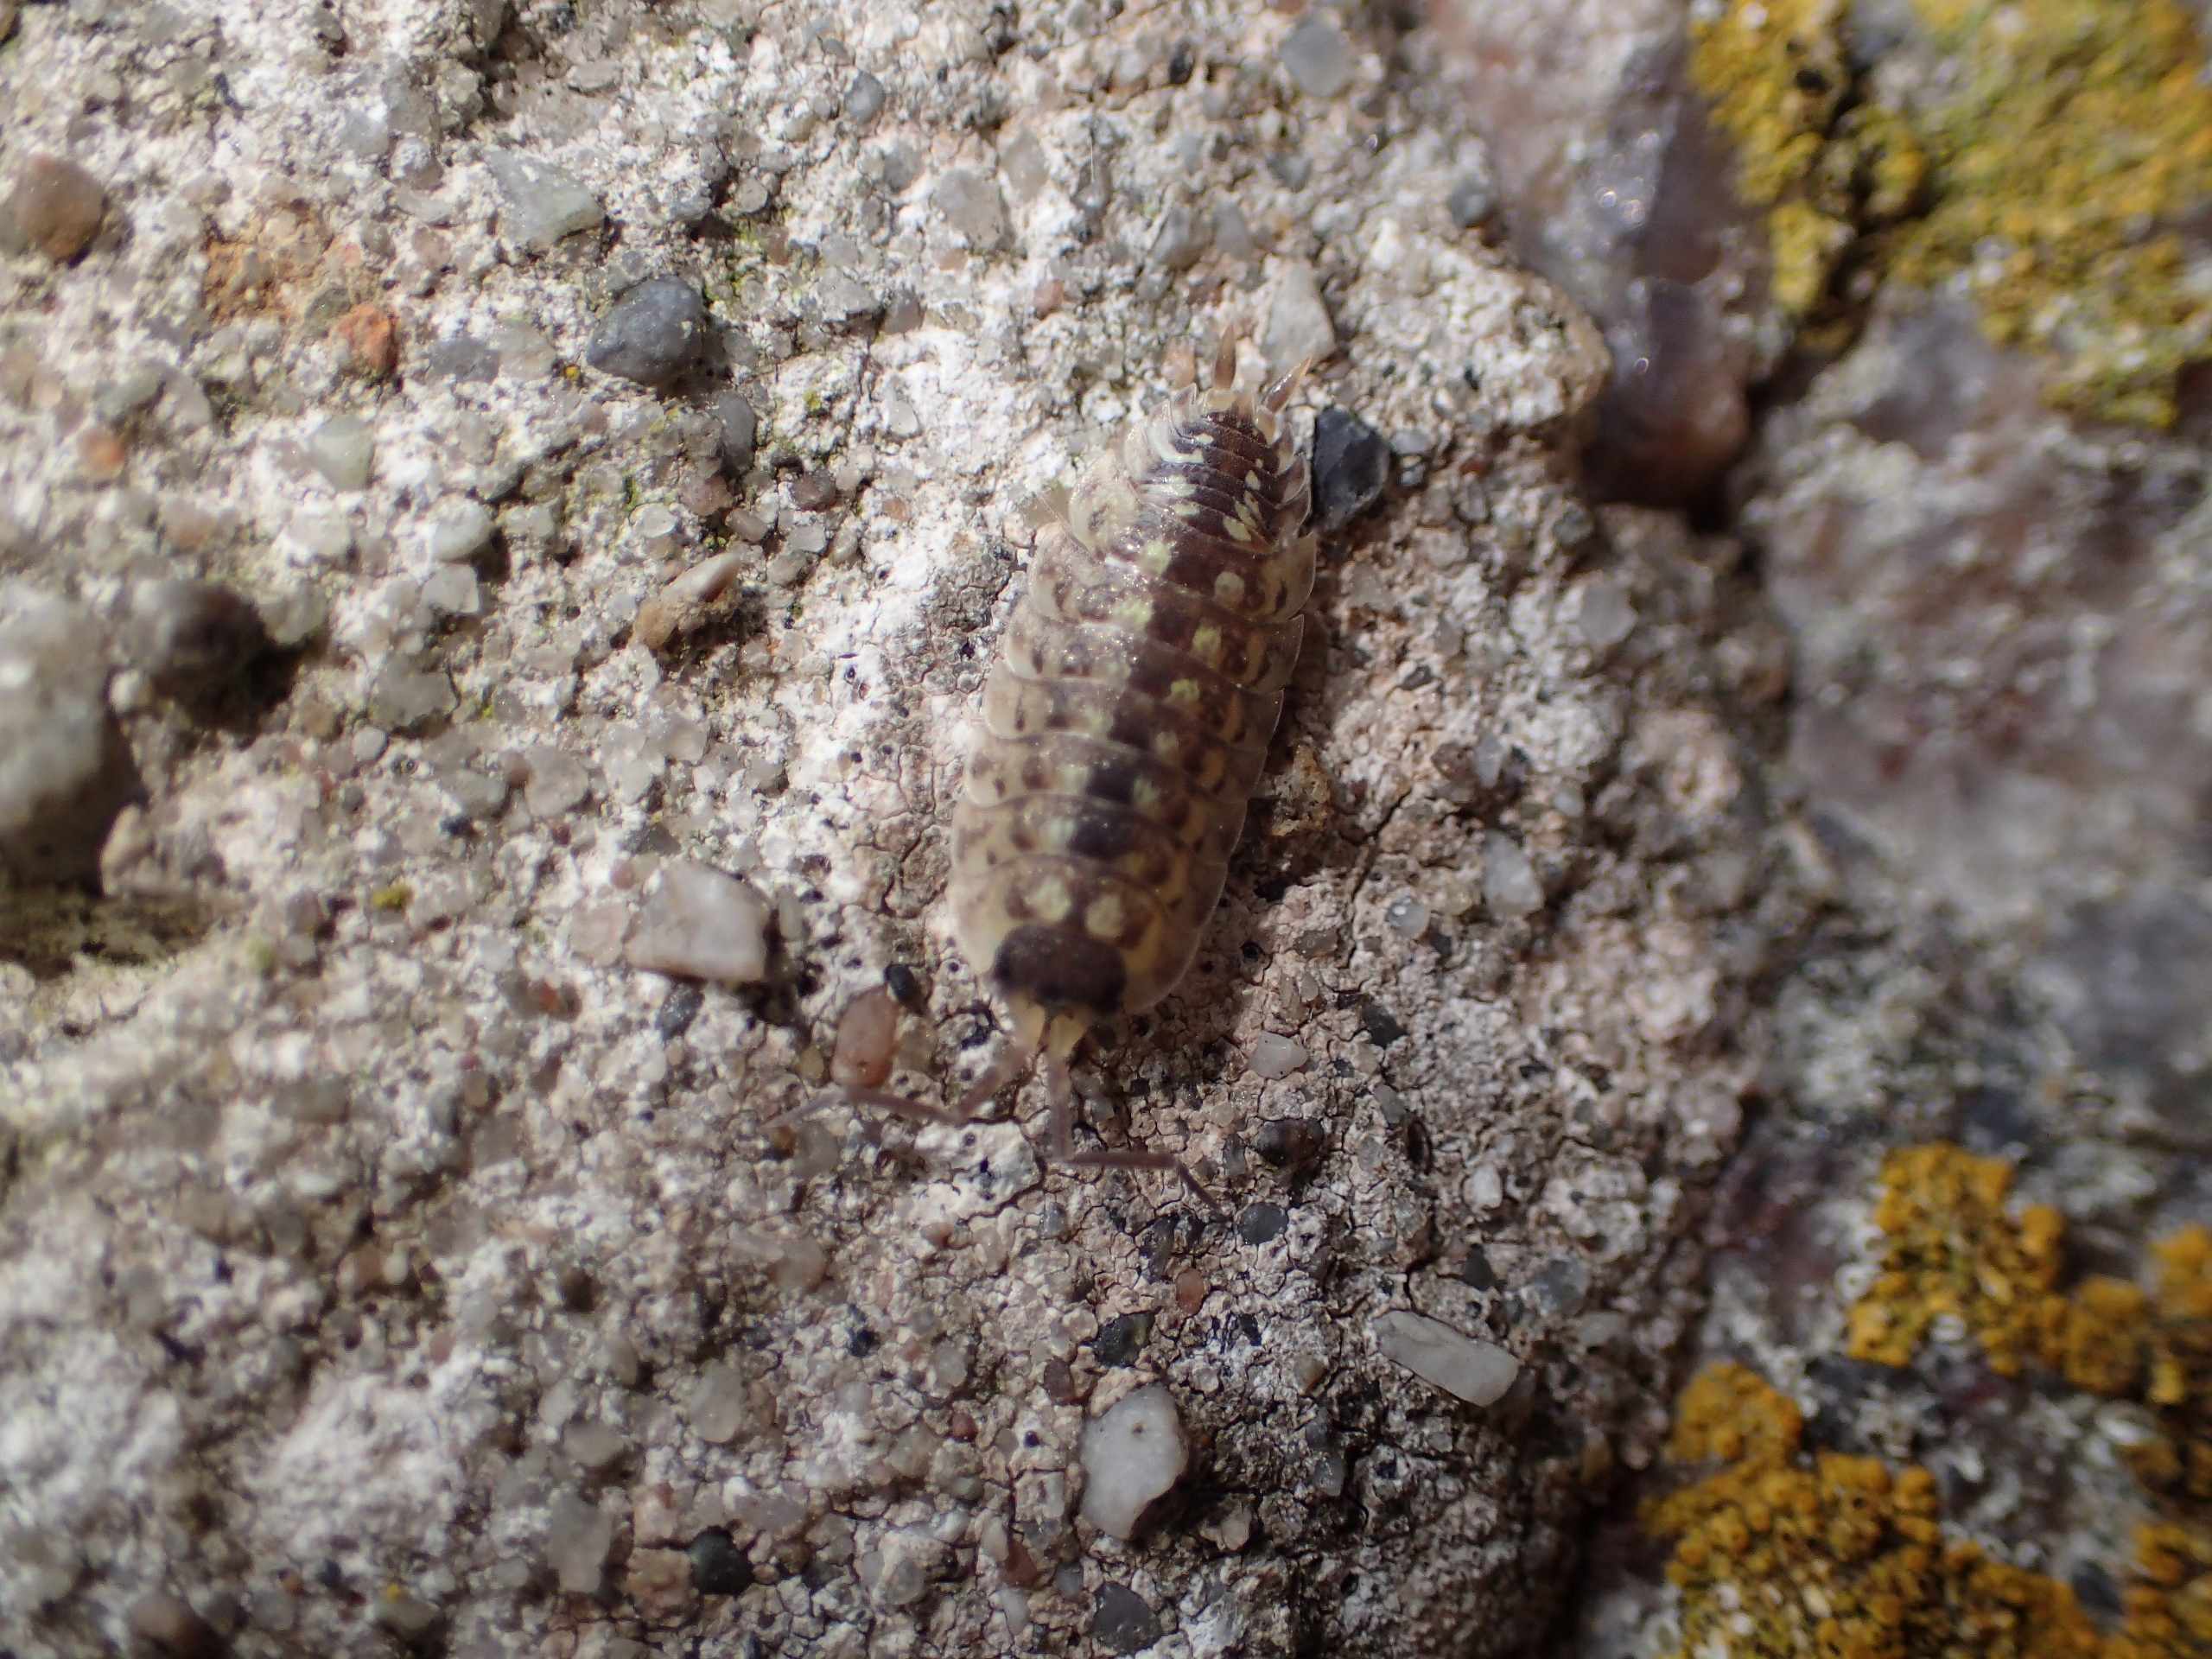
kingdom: Animalia
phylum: Arthropoda
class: Malacostraca
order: Isopoda
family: Porcellionidae
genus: Porcellio
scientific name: Porcellio spinicornis
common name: Sorthovedet bænkebider
